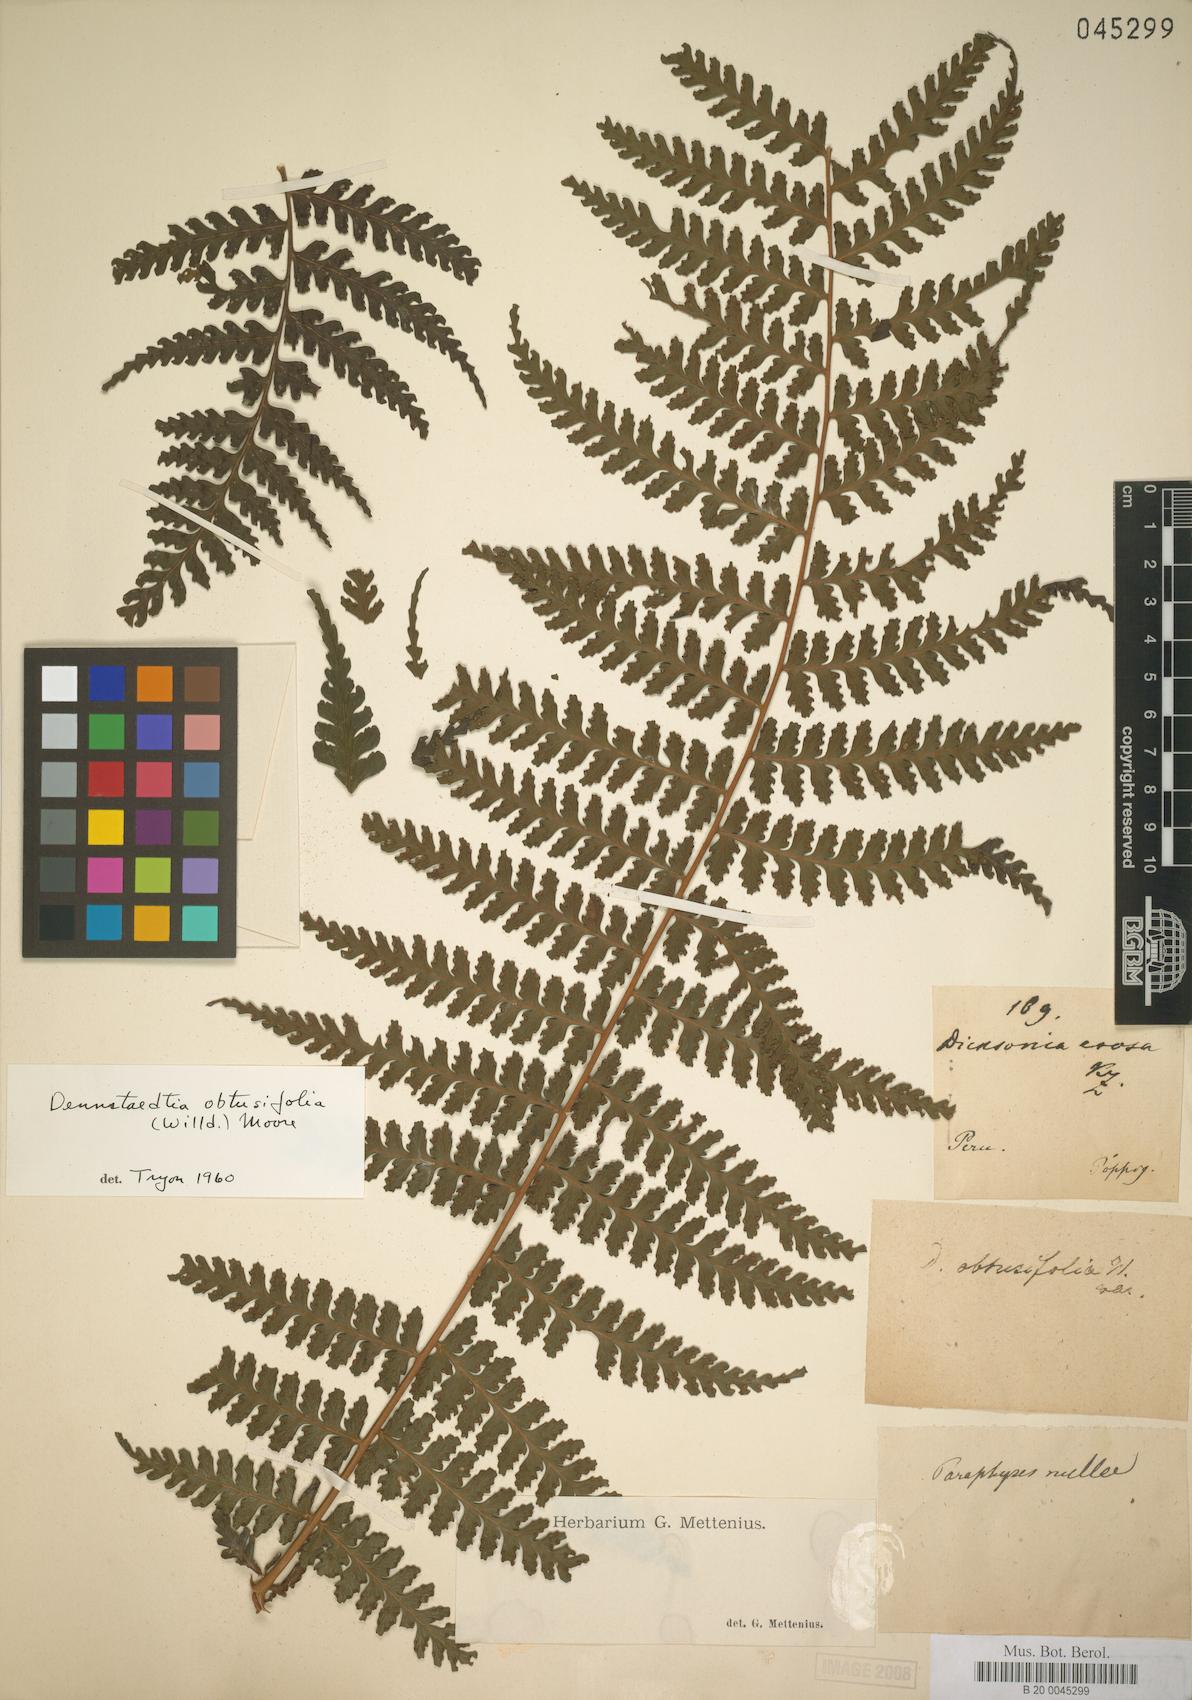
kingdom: Plantae
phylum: Tracheophyta
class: Polypodiopsida
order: Polypodiales
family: Dennstaedtiaceae
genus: Dennstaedtia
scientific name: Dennstaedtia dissecta
